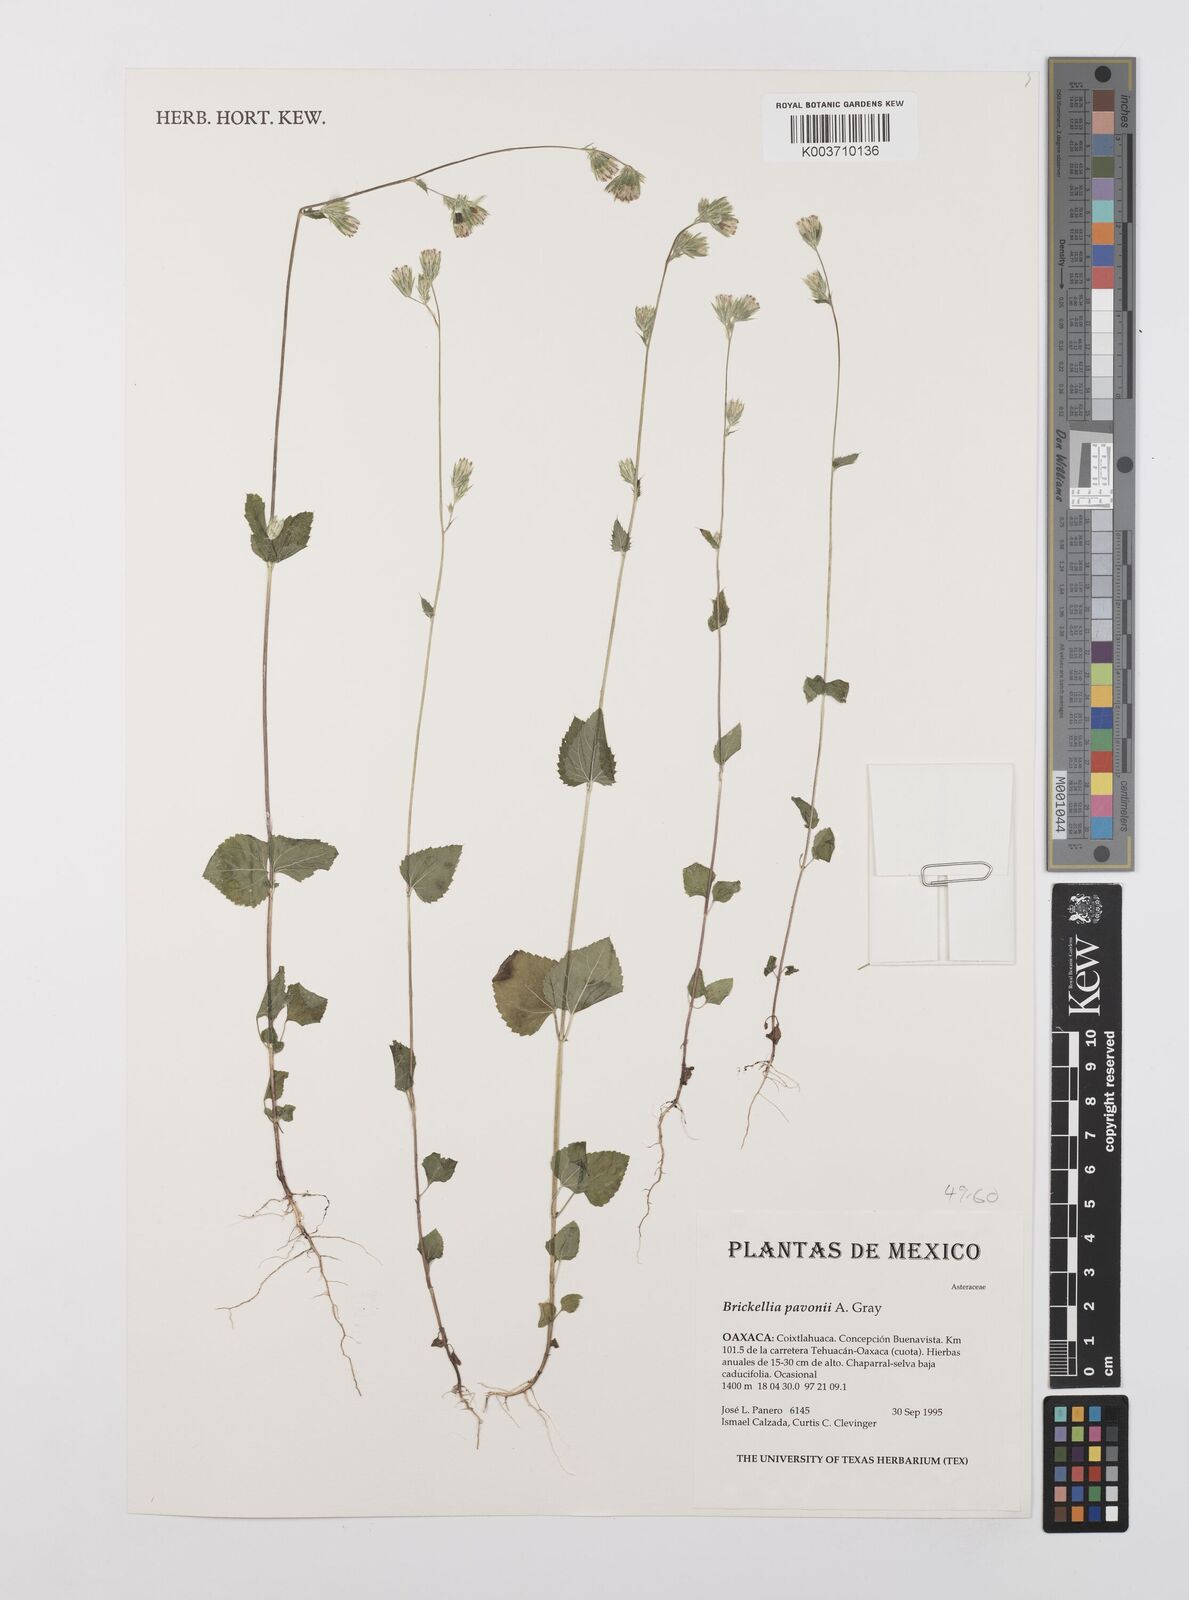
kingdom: Plantae
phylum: Tracheophyta
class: Magnoliopsida
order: Asterales
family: Asteraceae
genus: Brickellia
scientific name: Brickellia pavonii
